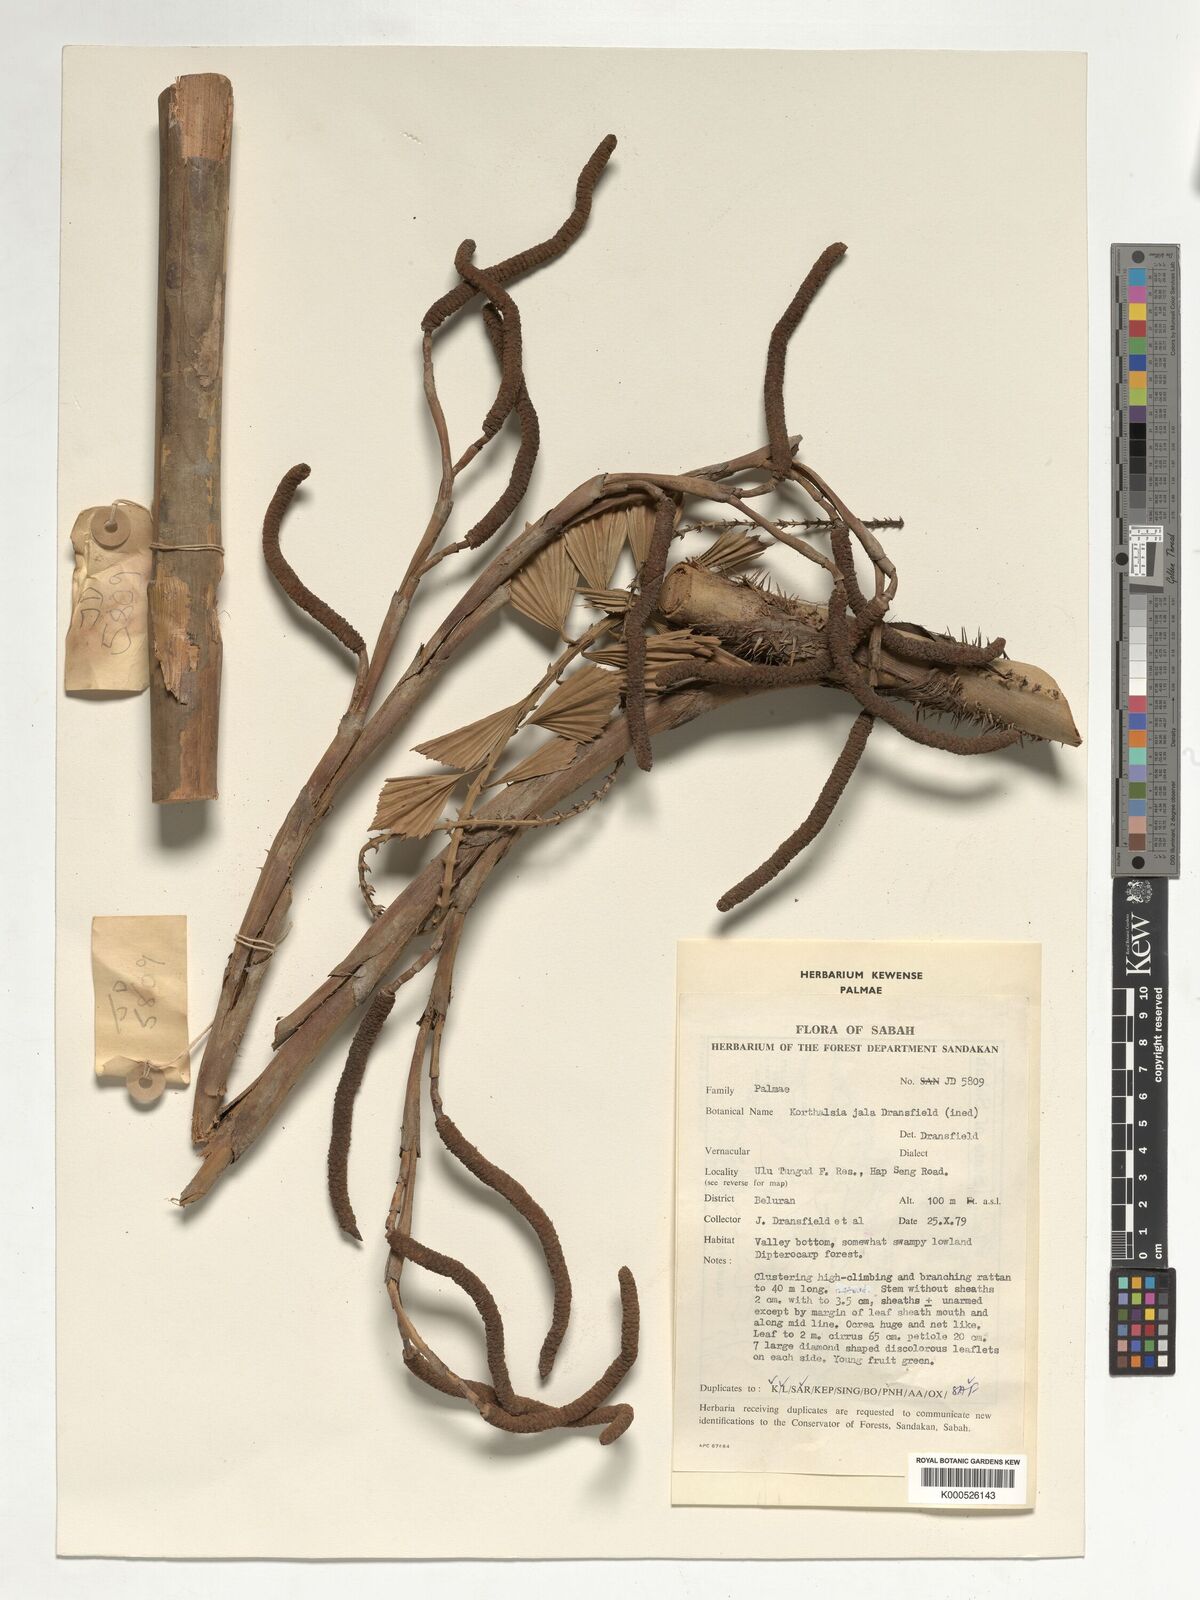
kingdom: Plantae
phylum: Tracheophyta
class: Liliopsida
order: Arecales
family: Arecaceae
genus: Korthalsia
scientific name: Korthalsia jala
